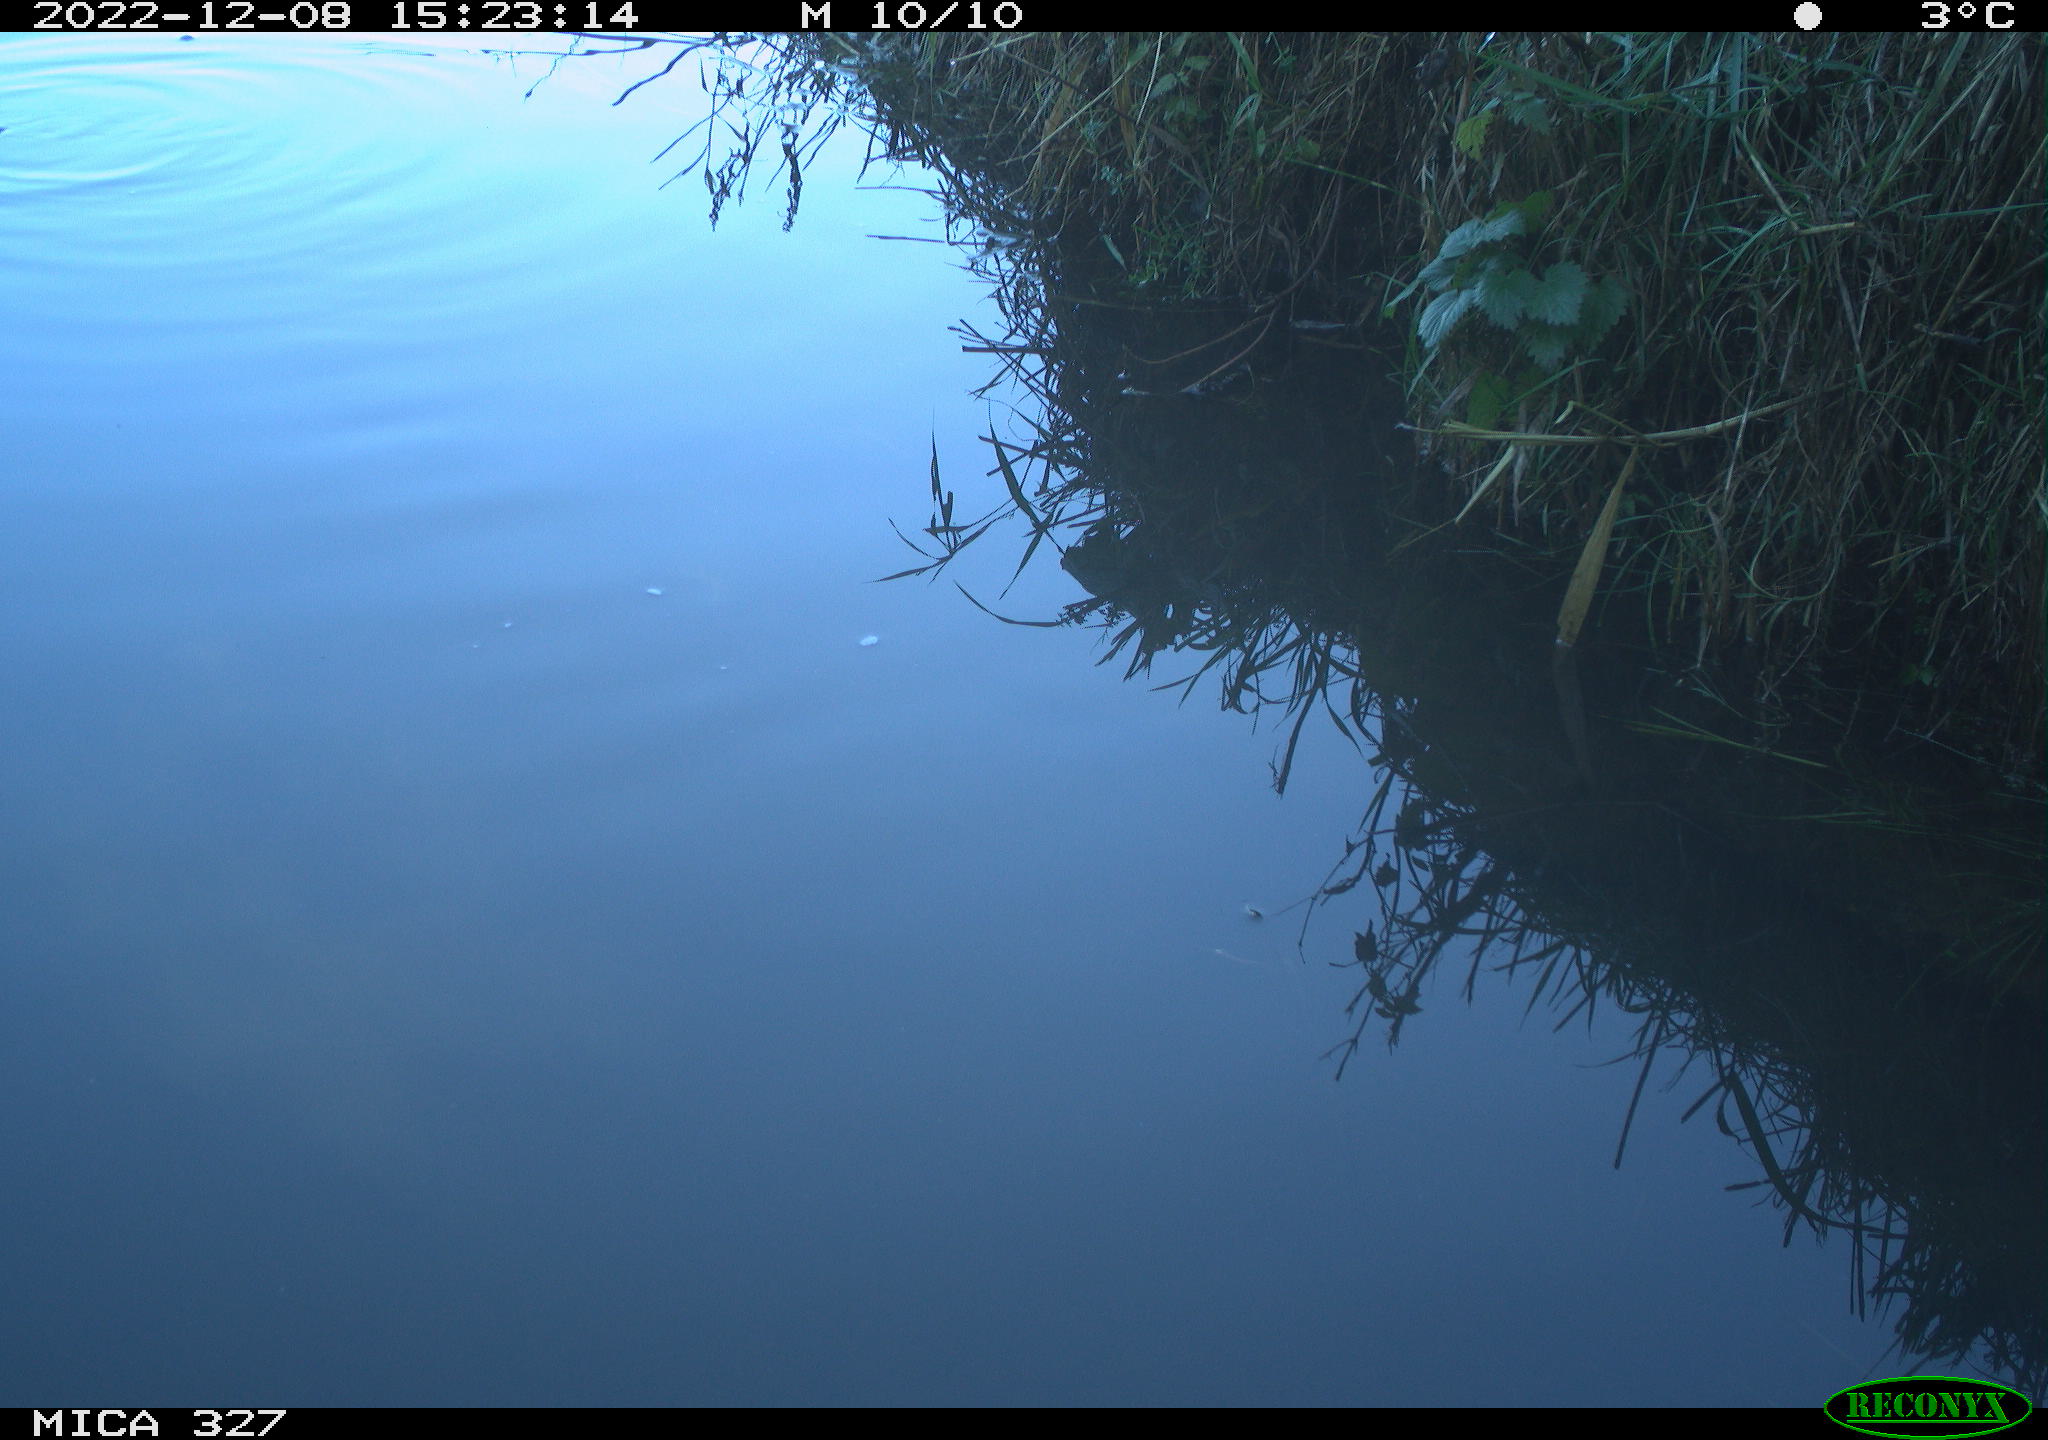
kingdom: Animalia
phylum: Chordata
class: Aves
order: Gruiformes
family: Rallidae
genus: Gallinula
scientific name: Gallinula chloropus
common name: Common moorhen
